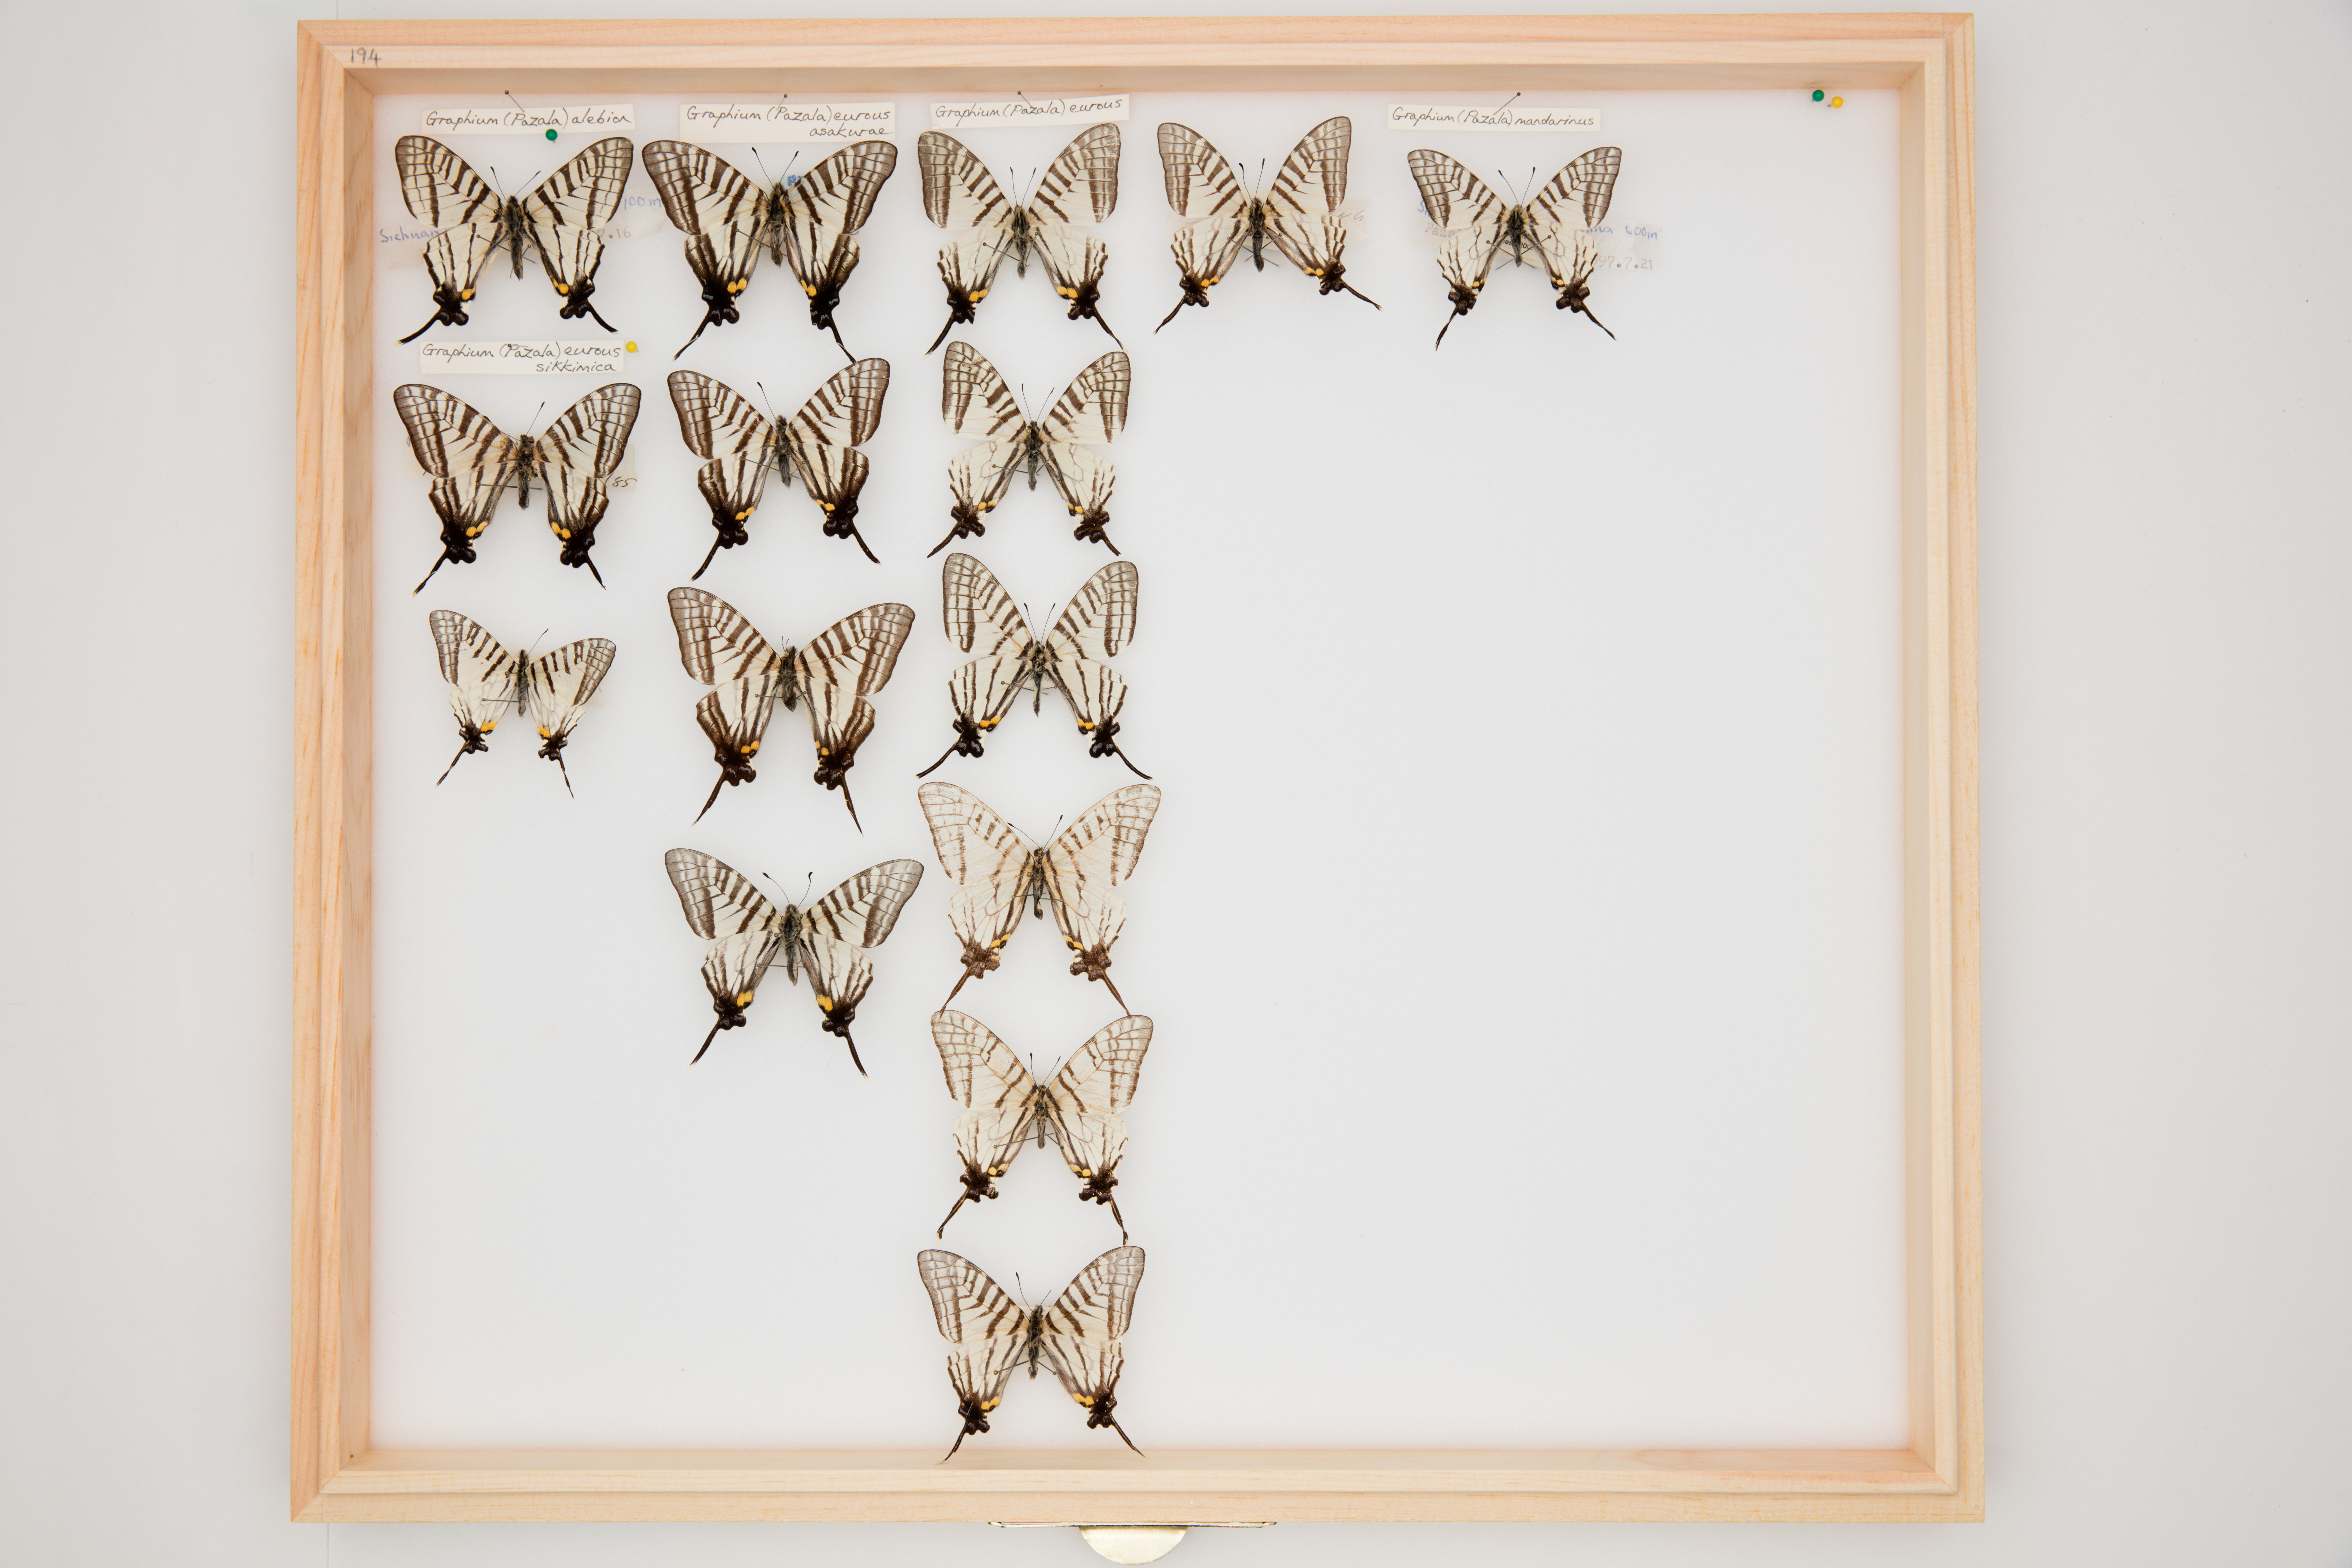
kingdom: Animalia
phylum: Arthropoda
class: Insecta
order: Lepidoptera
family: Papilionidae
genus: Graphium
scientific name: Graphium eurous
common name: Sixbar swordtail
